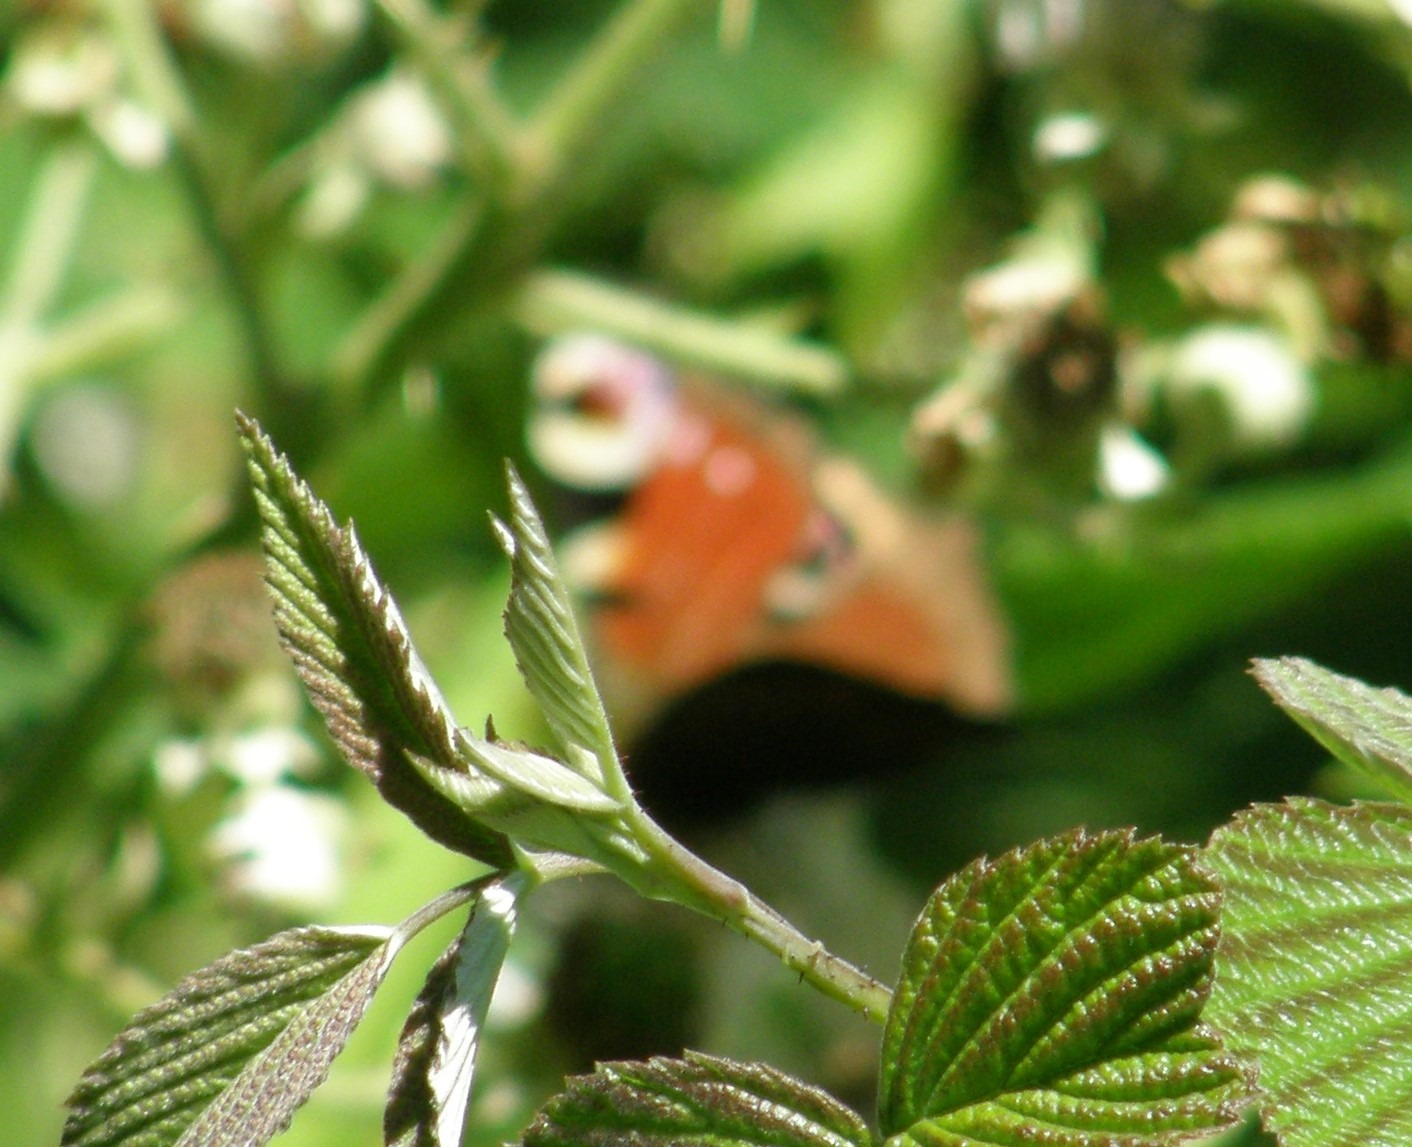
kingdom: Animalia
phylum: Arthropoda
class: Insecta
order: Lepidoptera
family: Nymphalidae
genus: Aglais
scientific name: Aglais io
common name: Dagpåfugleøje
